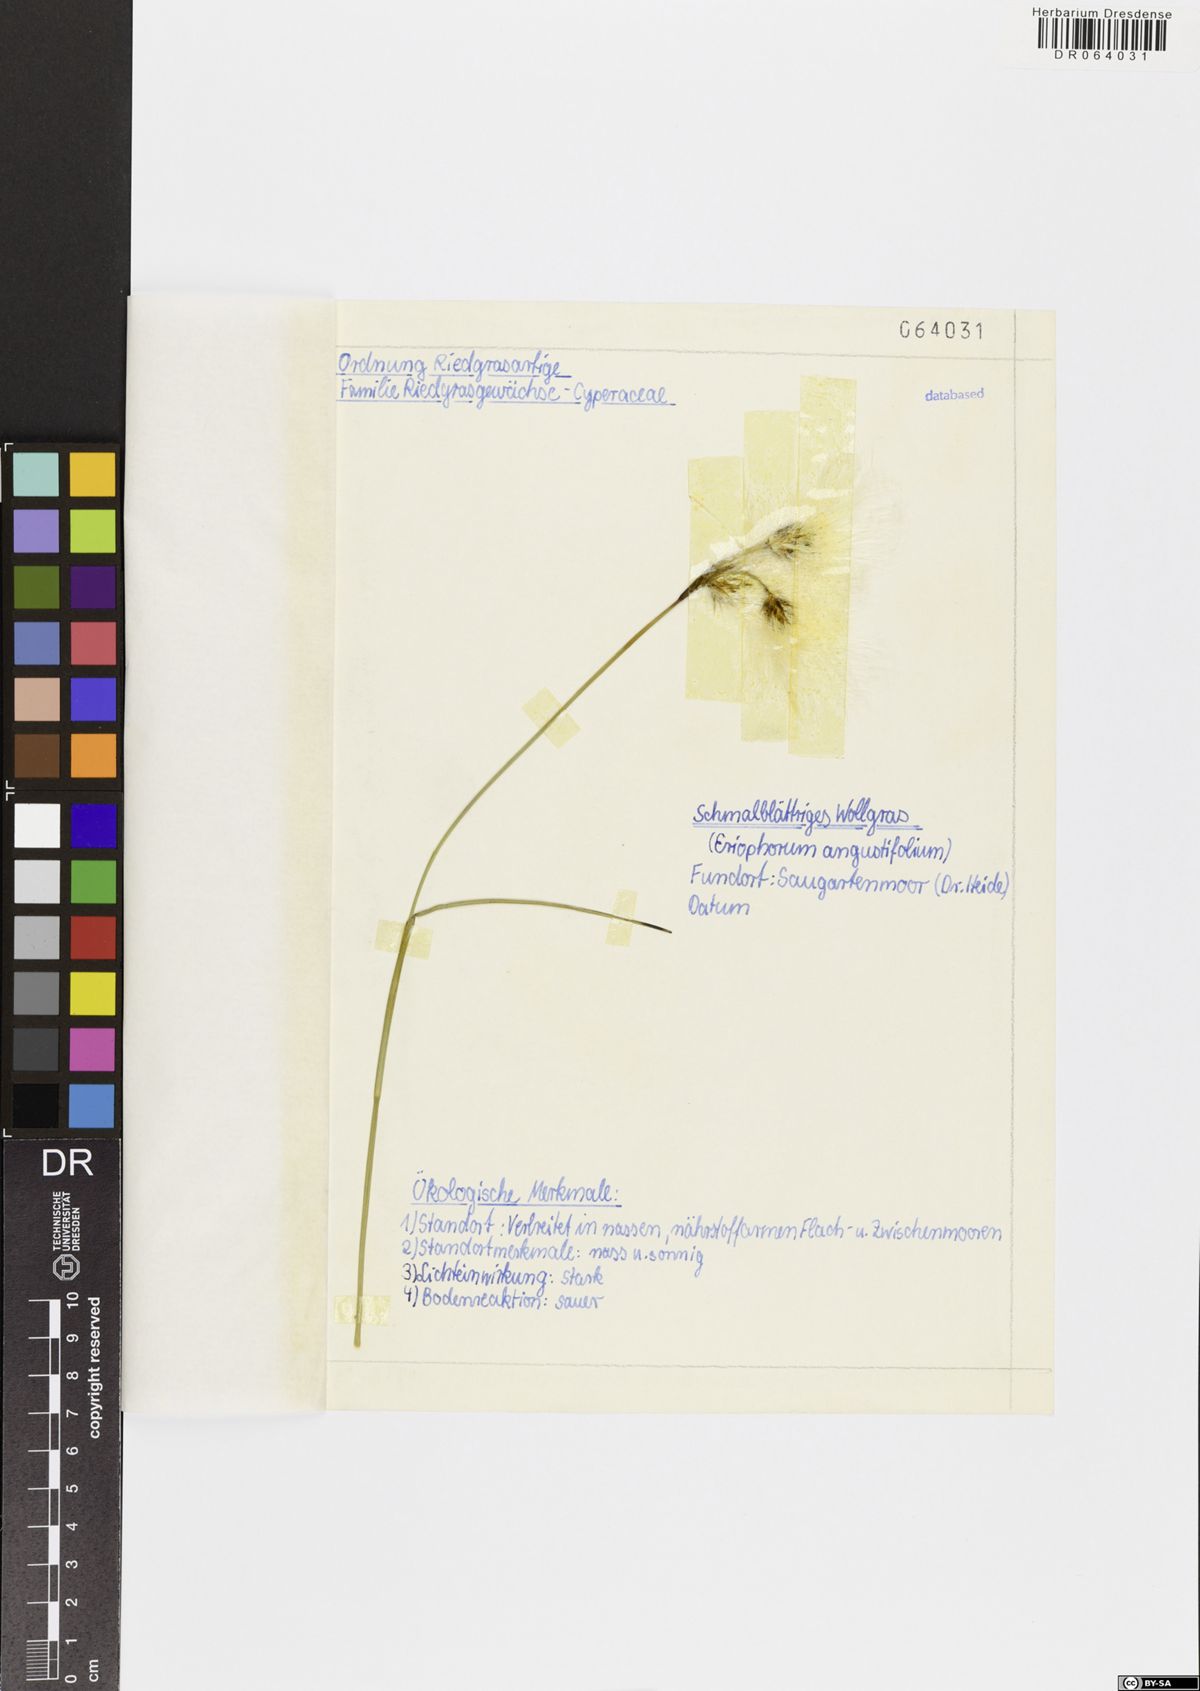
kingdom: Plantae
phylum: Tracheophyta
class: Liliopsida
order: Poales
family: Cyperaceae
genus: Eriophorum
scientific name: Eriophorum angustifolium
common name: Common cottongrass
